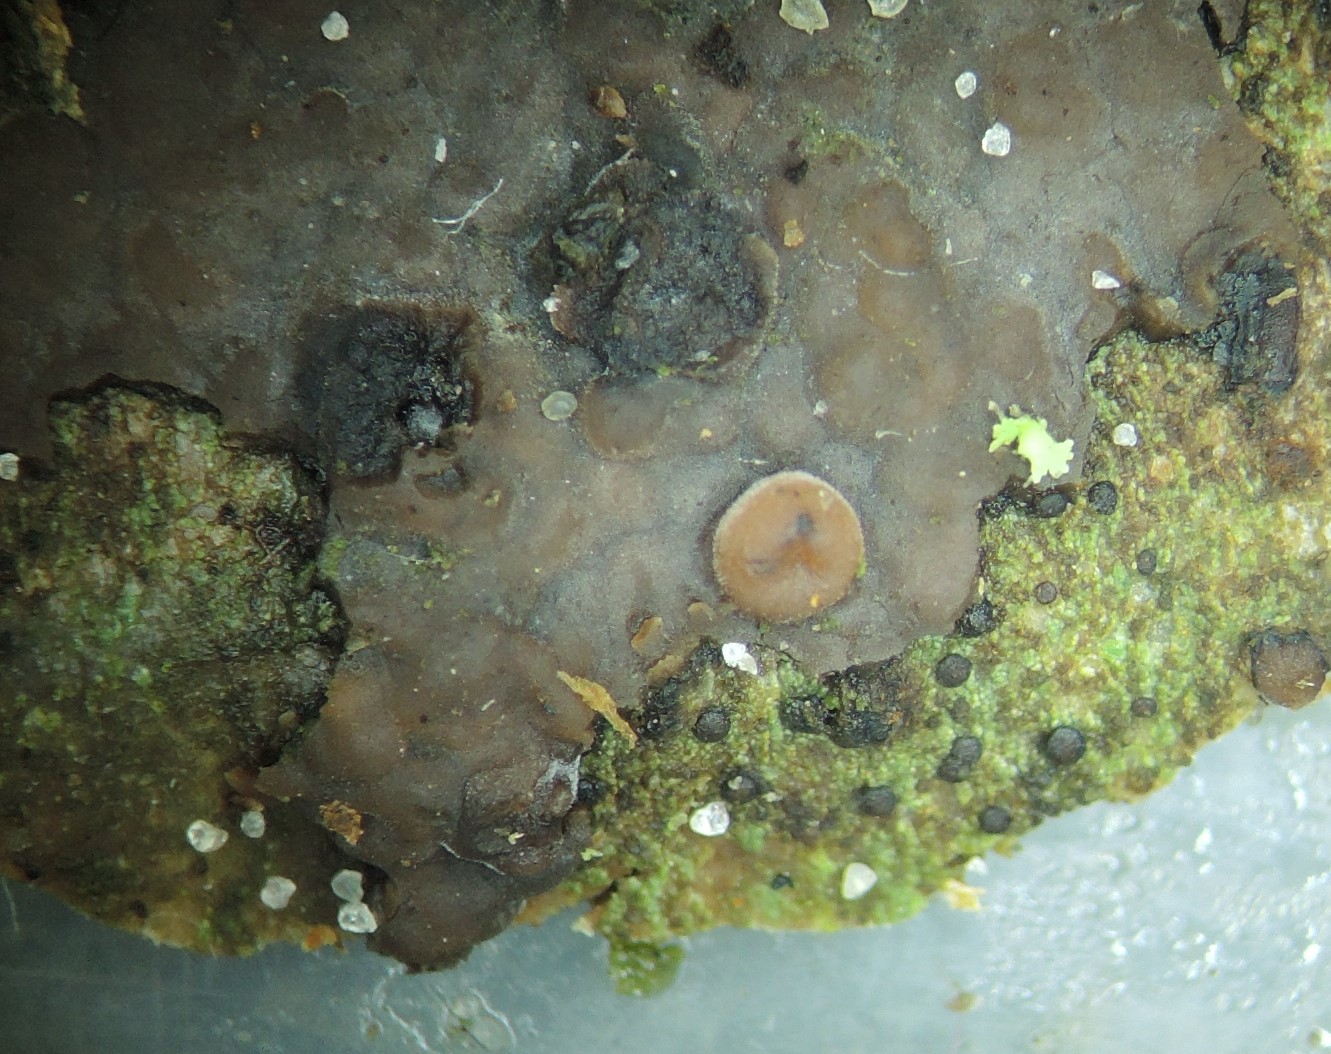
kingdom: Fungi
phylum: Basidiomycota
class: Pucciniomycetes
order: Platygloeales
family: Platygloeaceae
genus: Platygloea
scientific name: Platygloea
